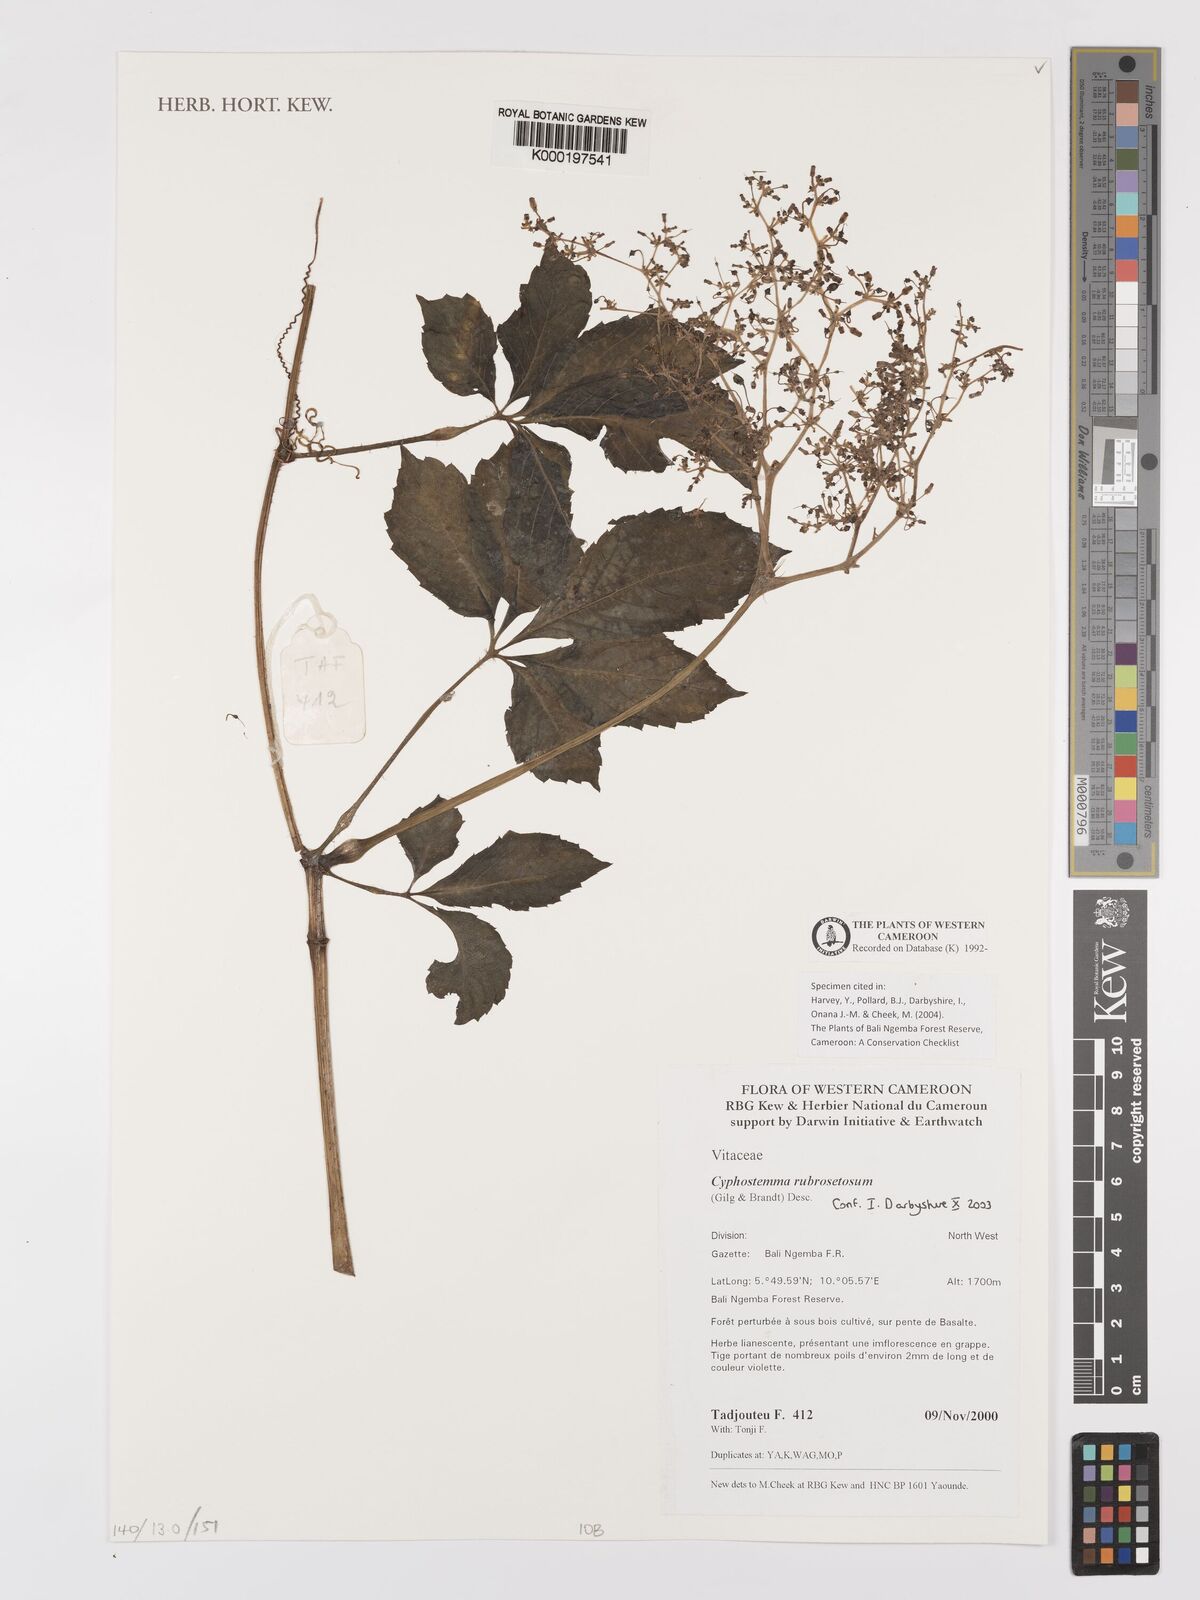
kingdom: Plantae
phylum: Tracheophyta
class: Magnoliopsida
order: Vitales
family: Vitaceae
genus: Cyphostemma
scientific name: Cyphostemma rubrosetosum
